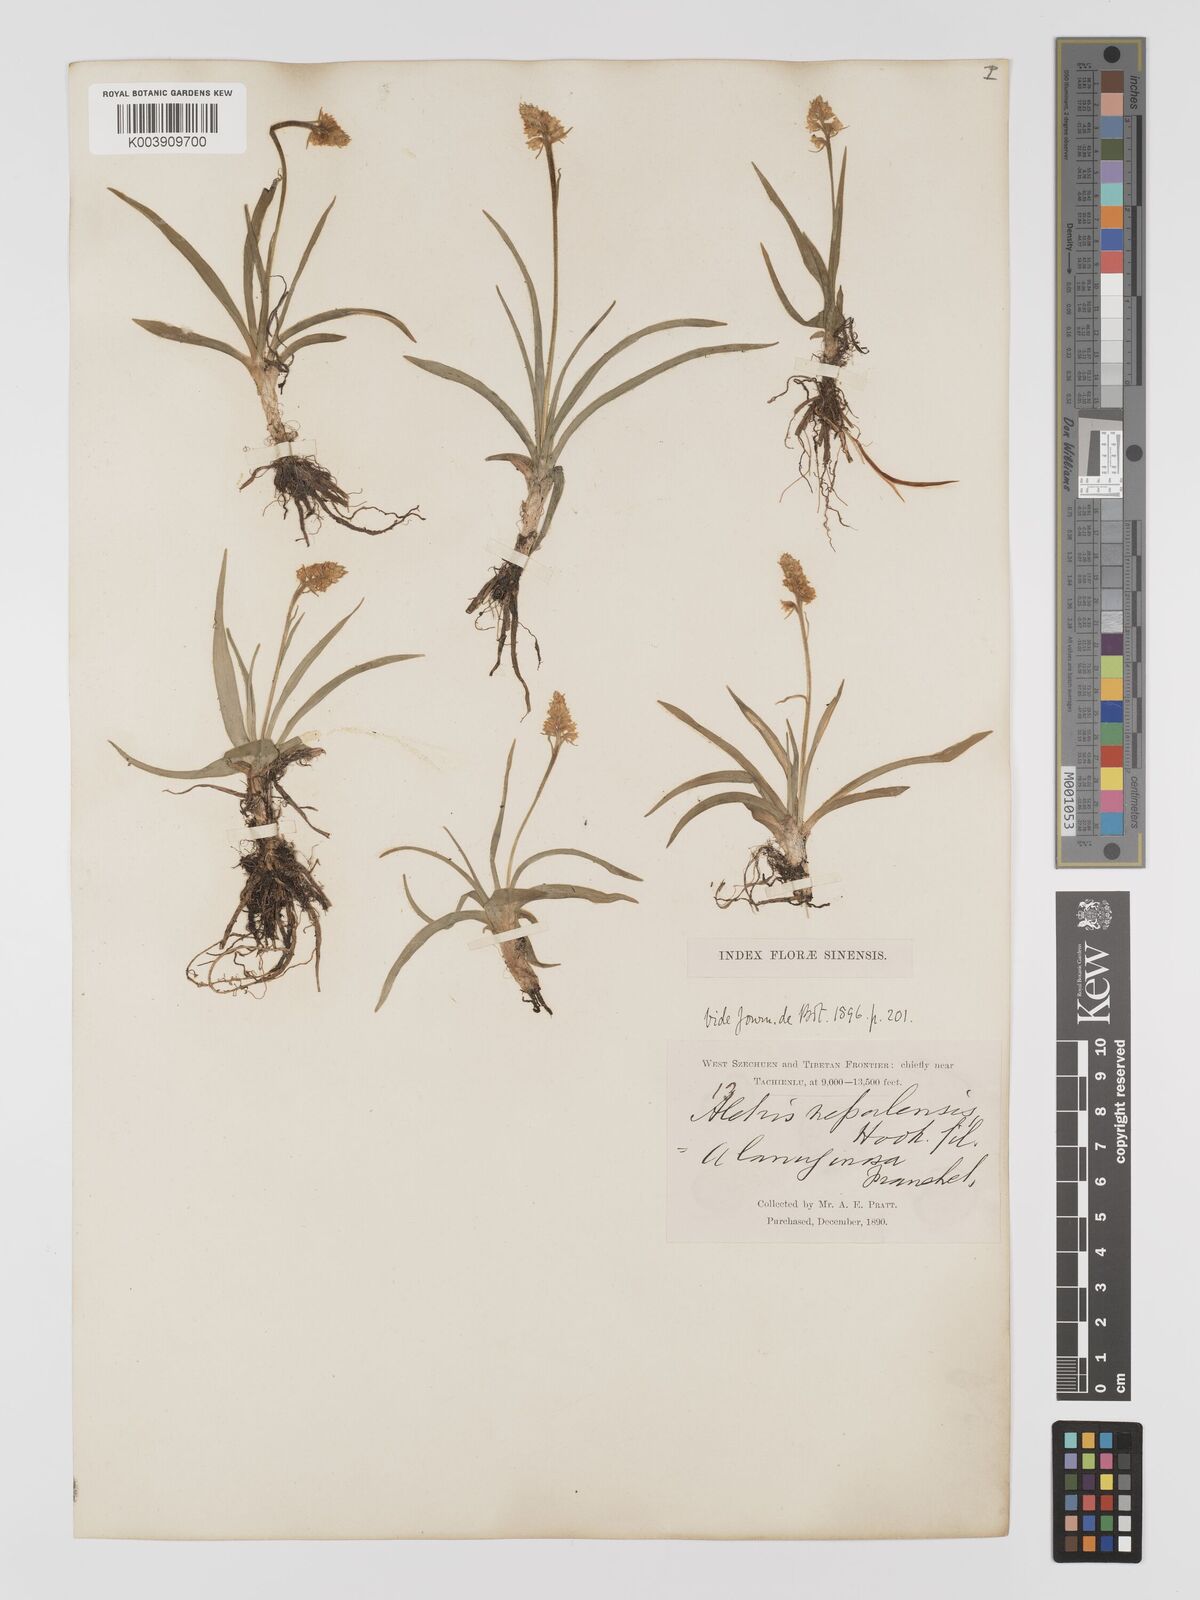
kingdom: Plantae
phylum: Tracheophyta
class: Liliopsida
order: Dioscoreales
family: Nartheciaceae
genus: Aletris
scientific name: Aletris pauciflora
